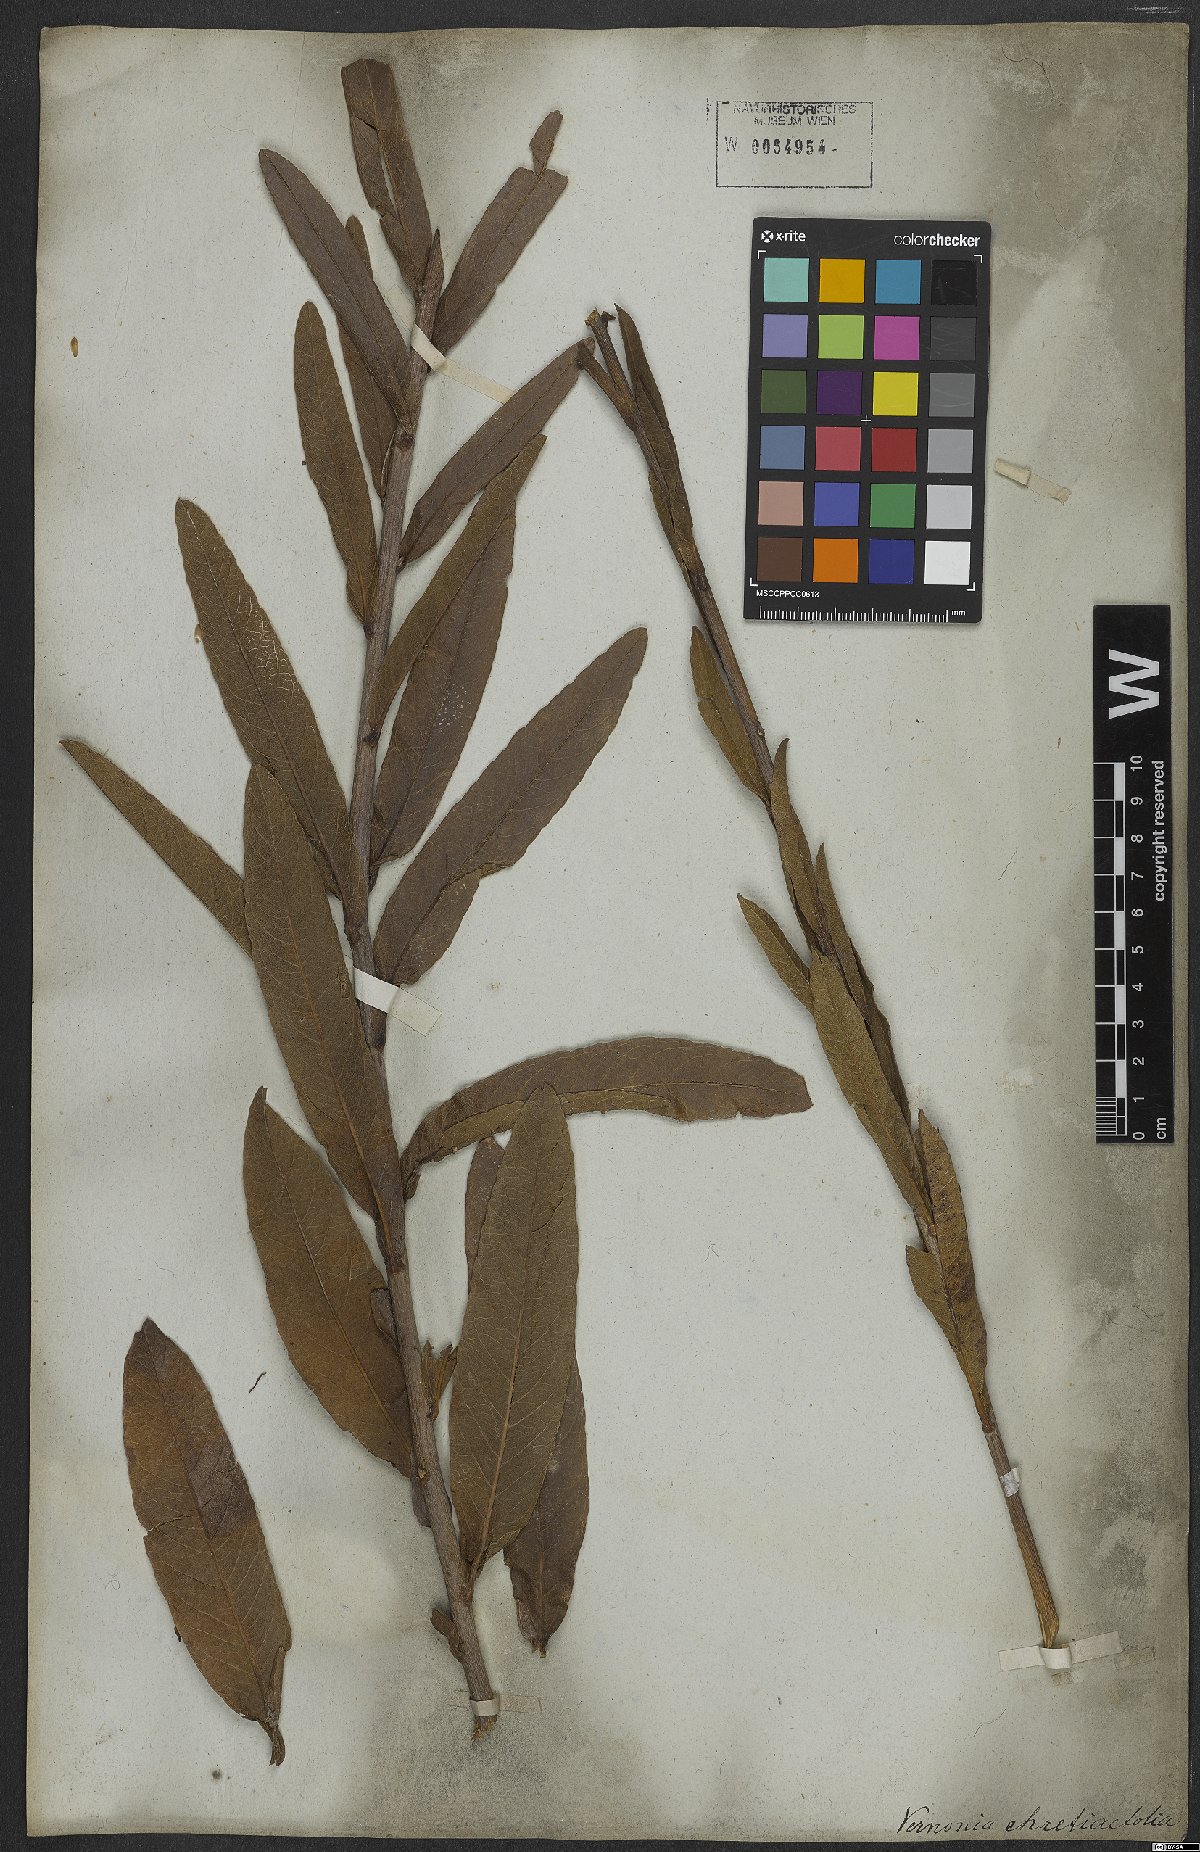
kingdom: Plantae
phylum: Tracheophyta
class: Magnoliopsida
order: Asterales
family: Asteraceae
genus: Lessingianthus
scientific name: Lessingianthus zuccarinianus
